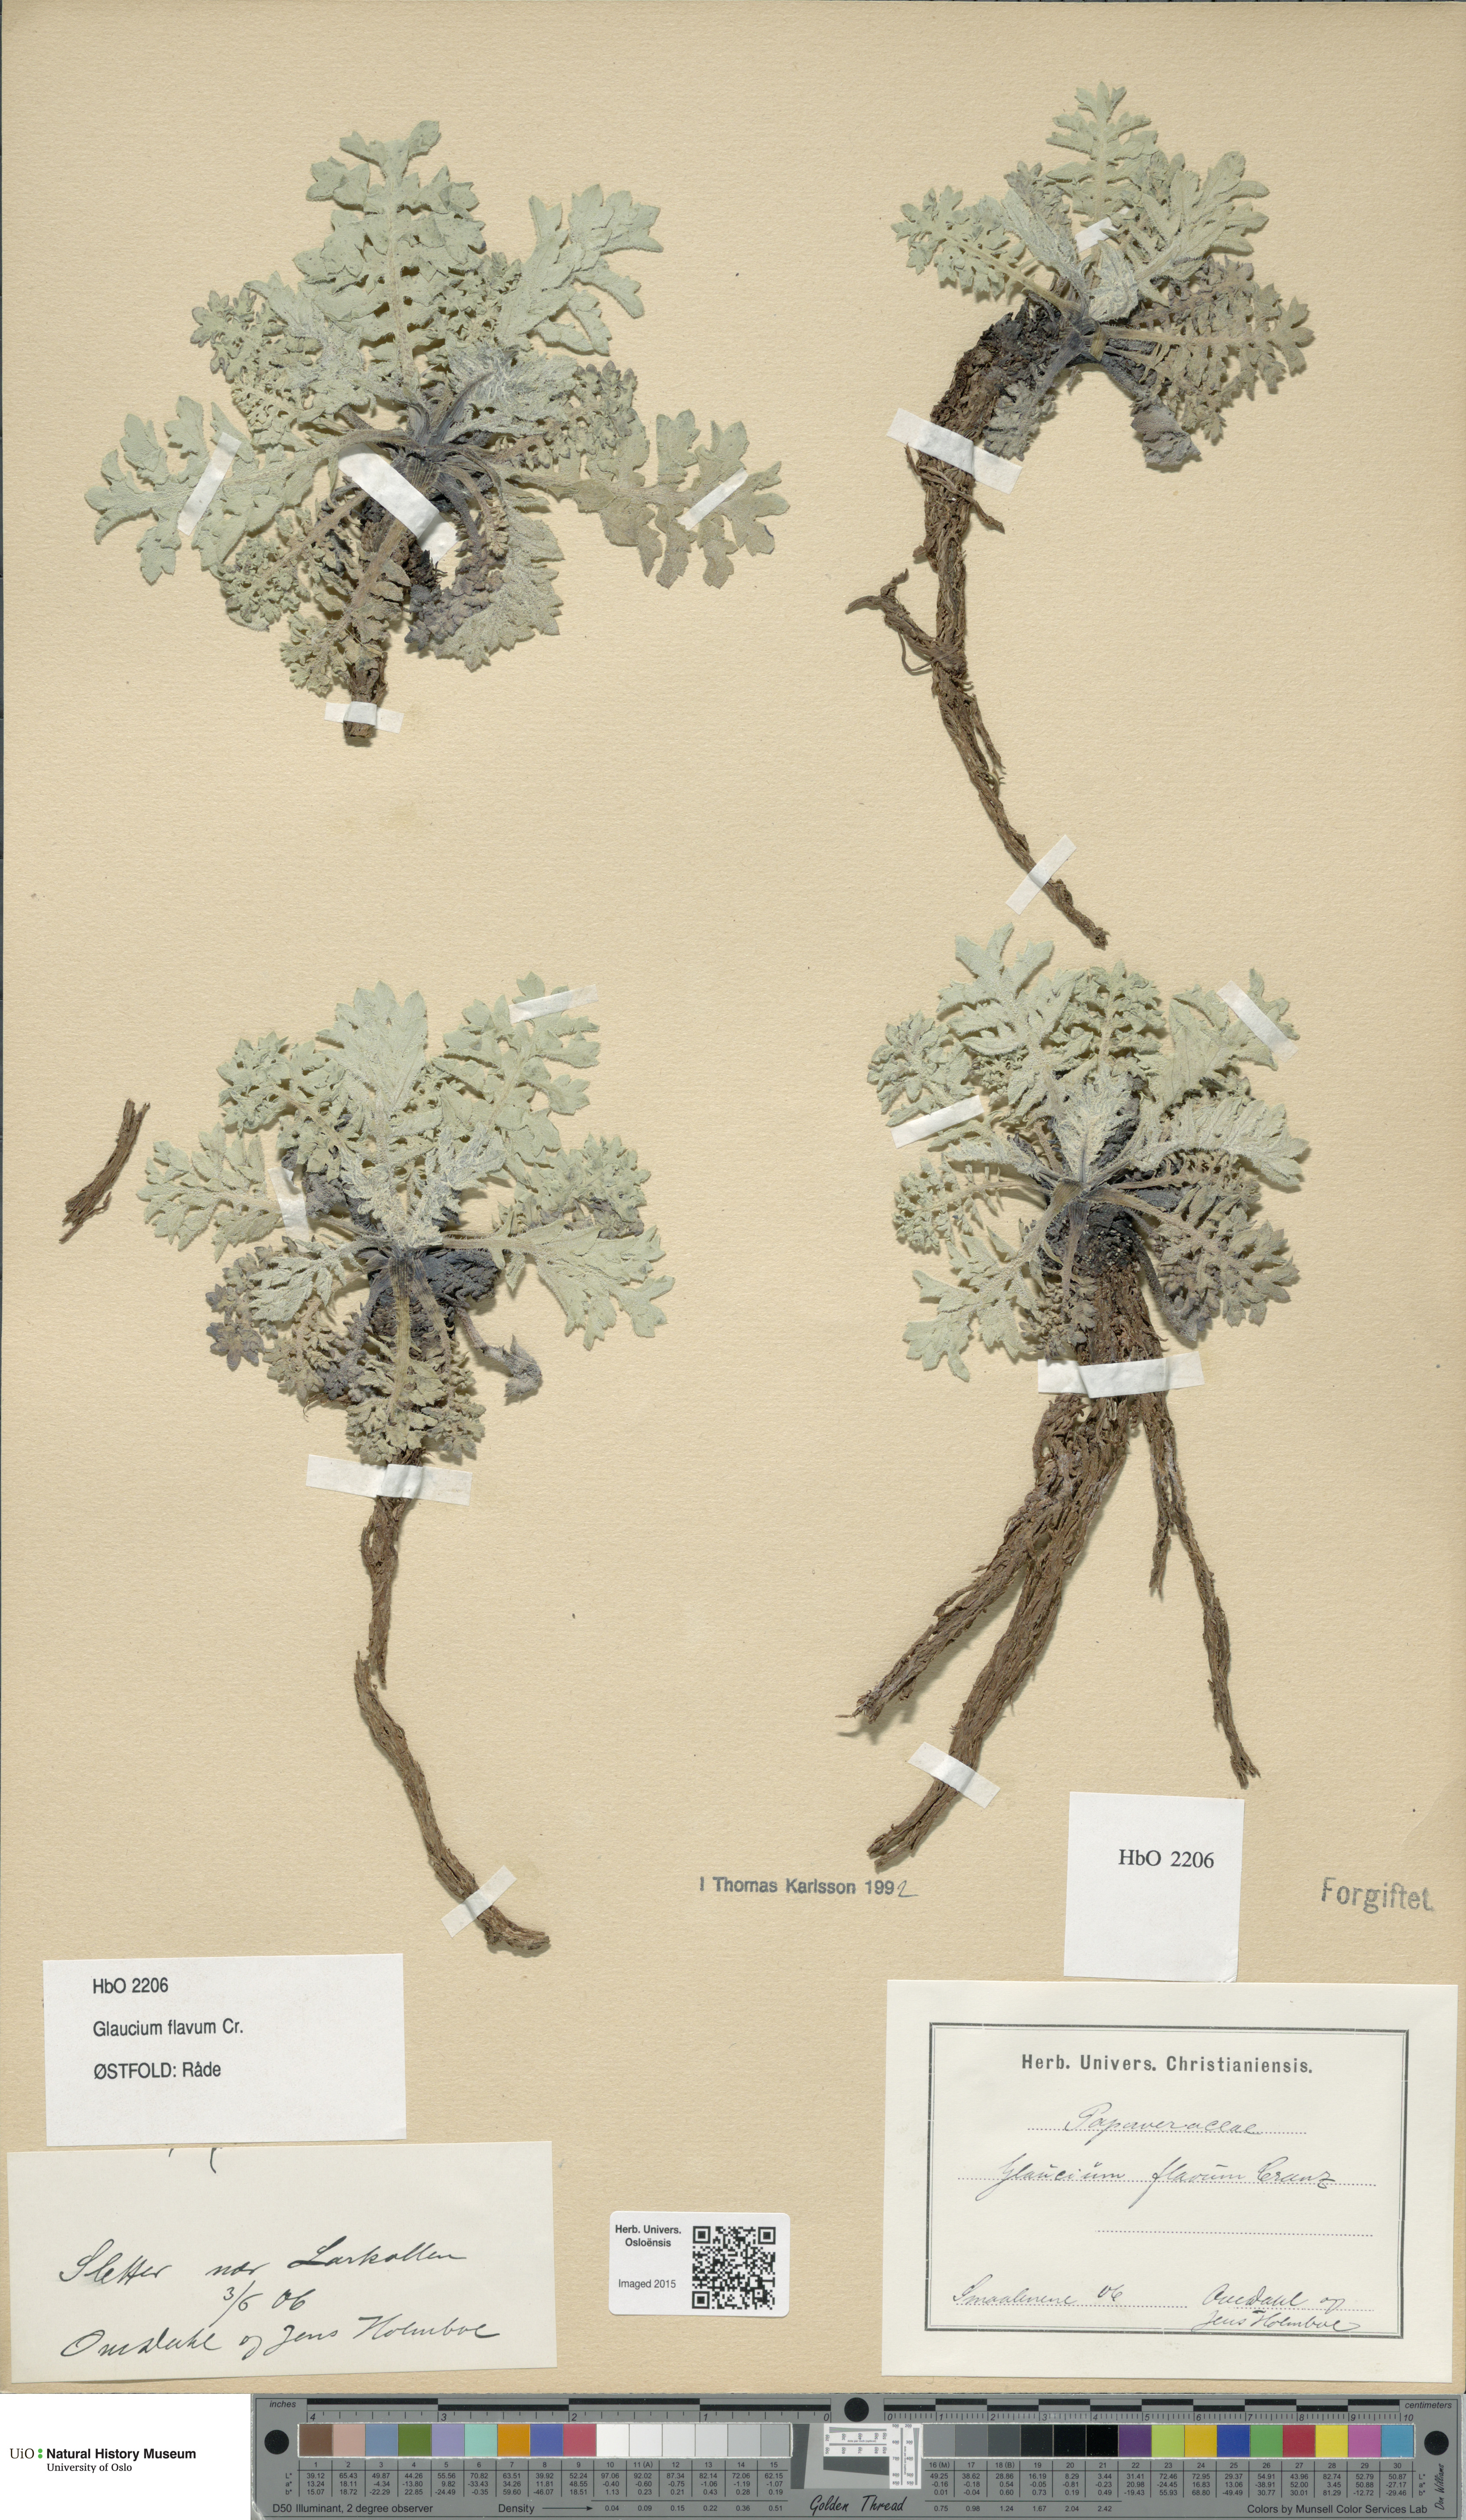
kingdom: Plantae
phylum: Tracheophyta
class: Magnoliopsida
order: Ranunculales
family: Papaveraceae
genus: Glaucium
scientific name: Glaucium flavum
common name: Yellow horned-poppy
